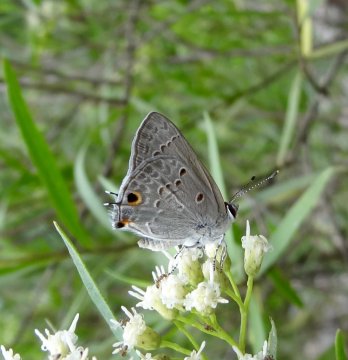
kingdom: Animalia
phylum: Arthropoda
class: Insecta
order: Lepidoptera
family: Lycaenidae
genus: Callicista
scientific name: Callicista columella
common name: Mallow Scrub-Hairstreak
